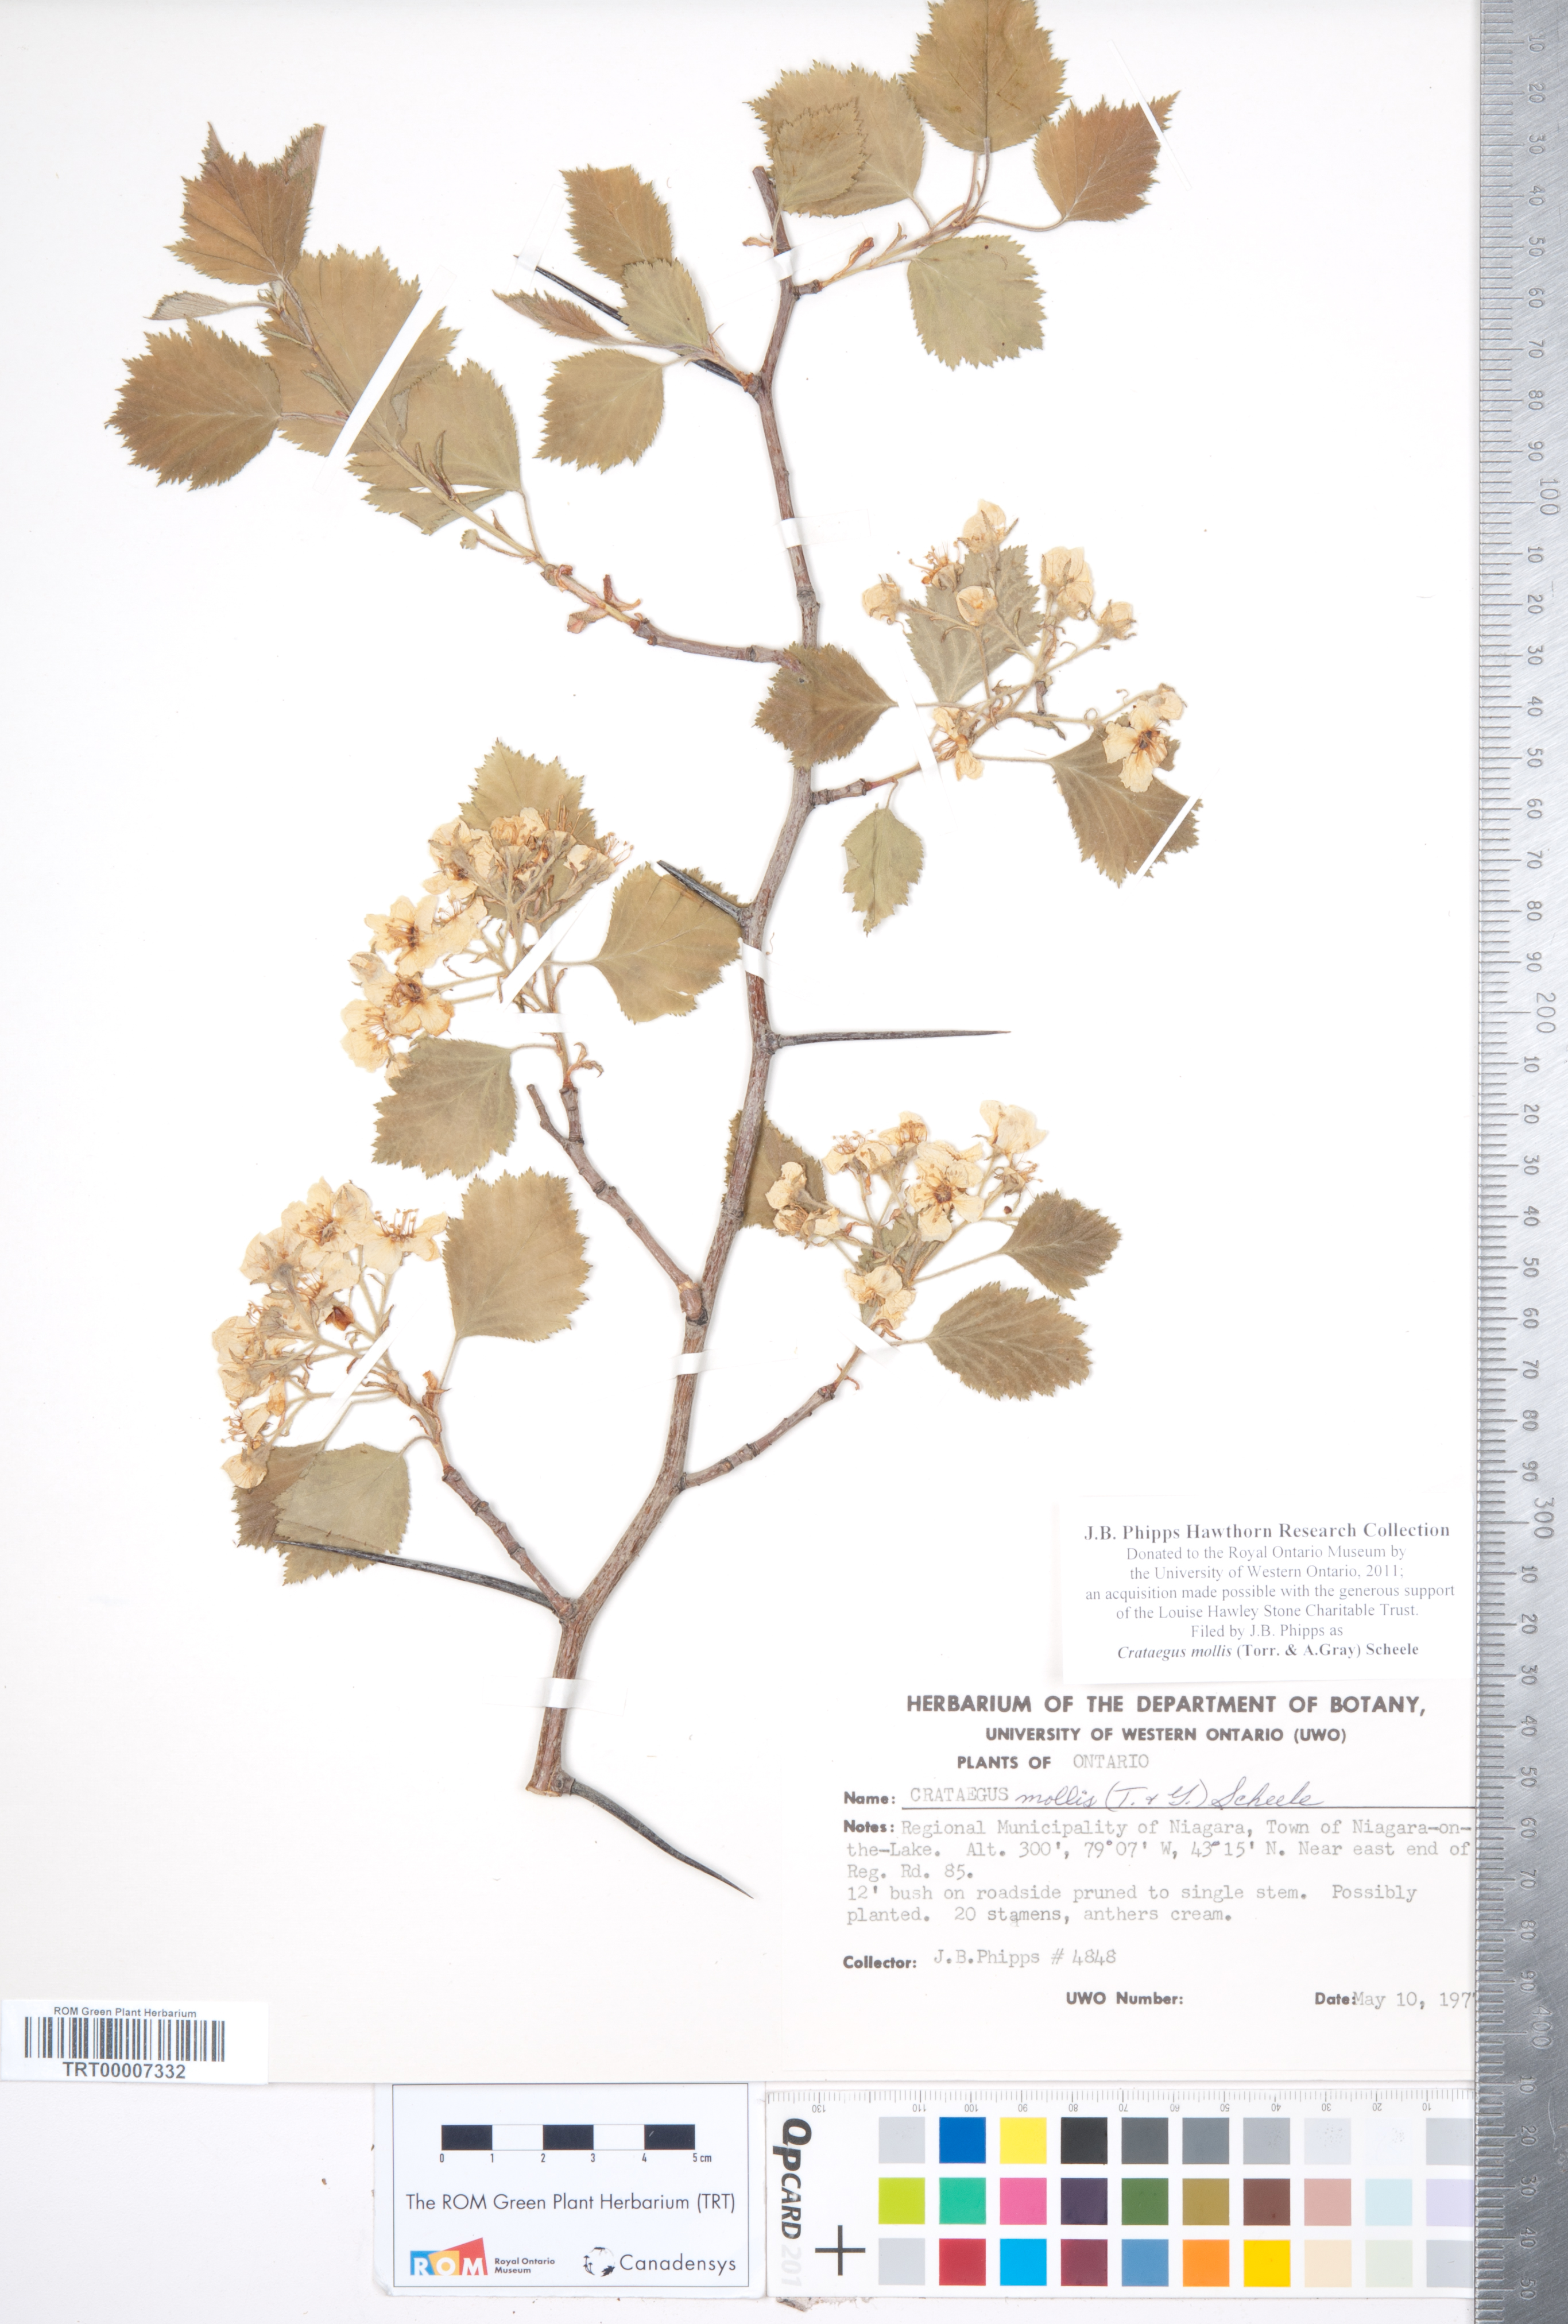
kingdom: Plantae
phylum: Tracheophyta
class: Magnoliopsida
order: Rosales
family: Rosaceae
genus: Crataegus
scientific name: Crataegus mollis
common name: Downy hawthorn
